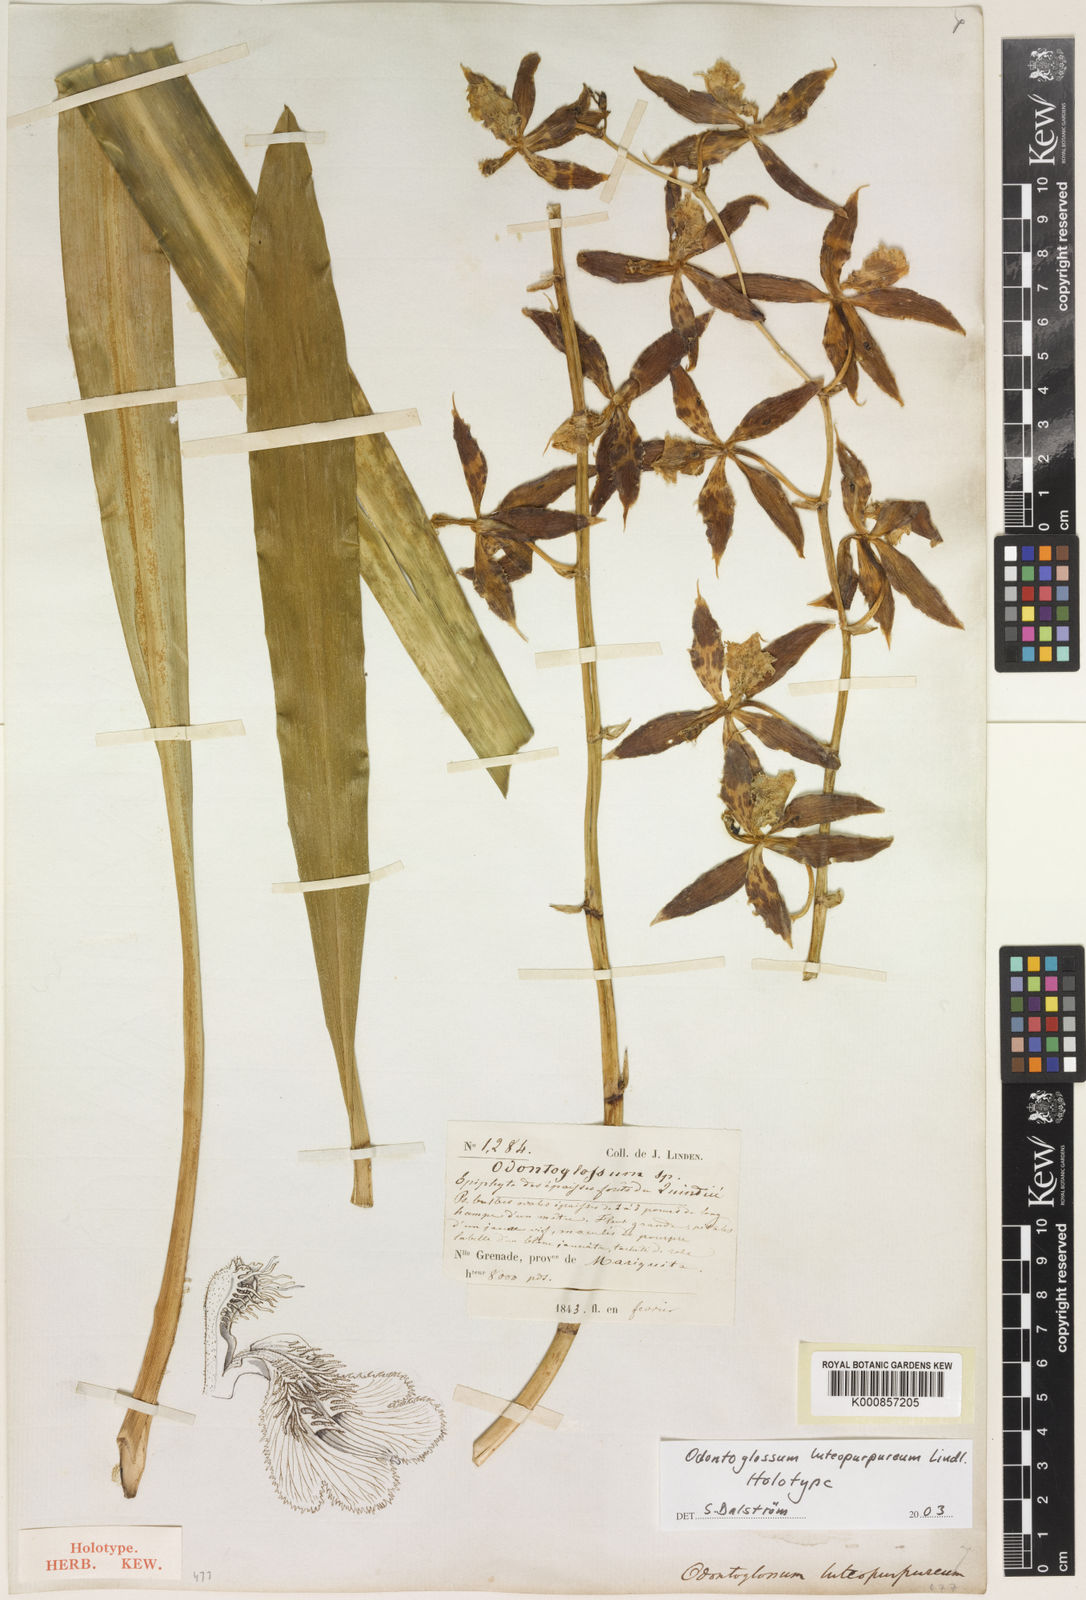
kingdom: Plantae
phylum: Tracheophyta
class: Liliopsida
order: Asparagales
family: Orchidaceae
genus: Oncidium
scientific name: Oncidium luteopurpureum
